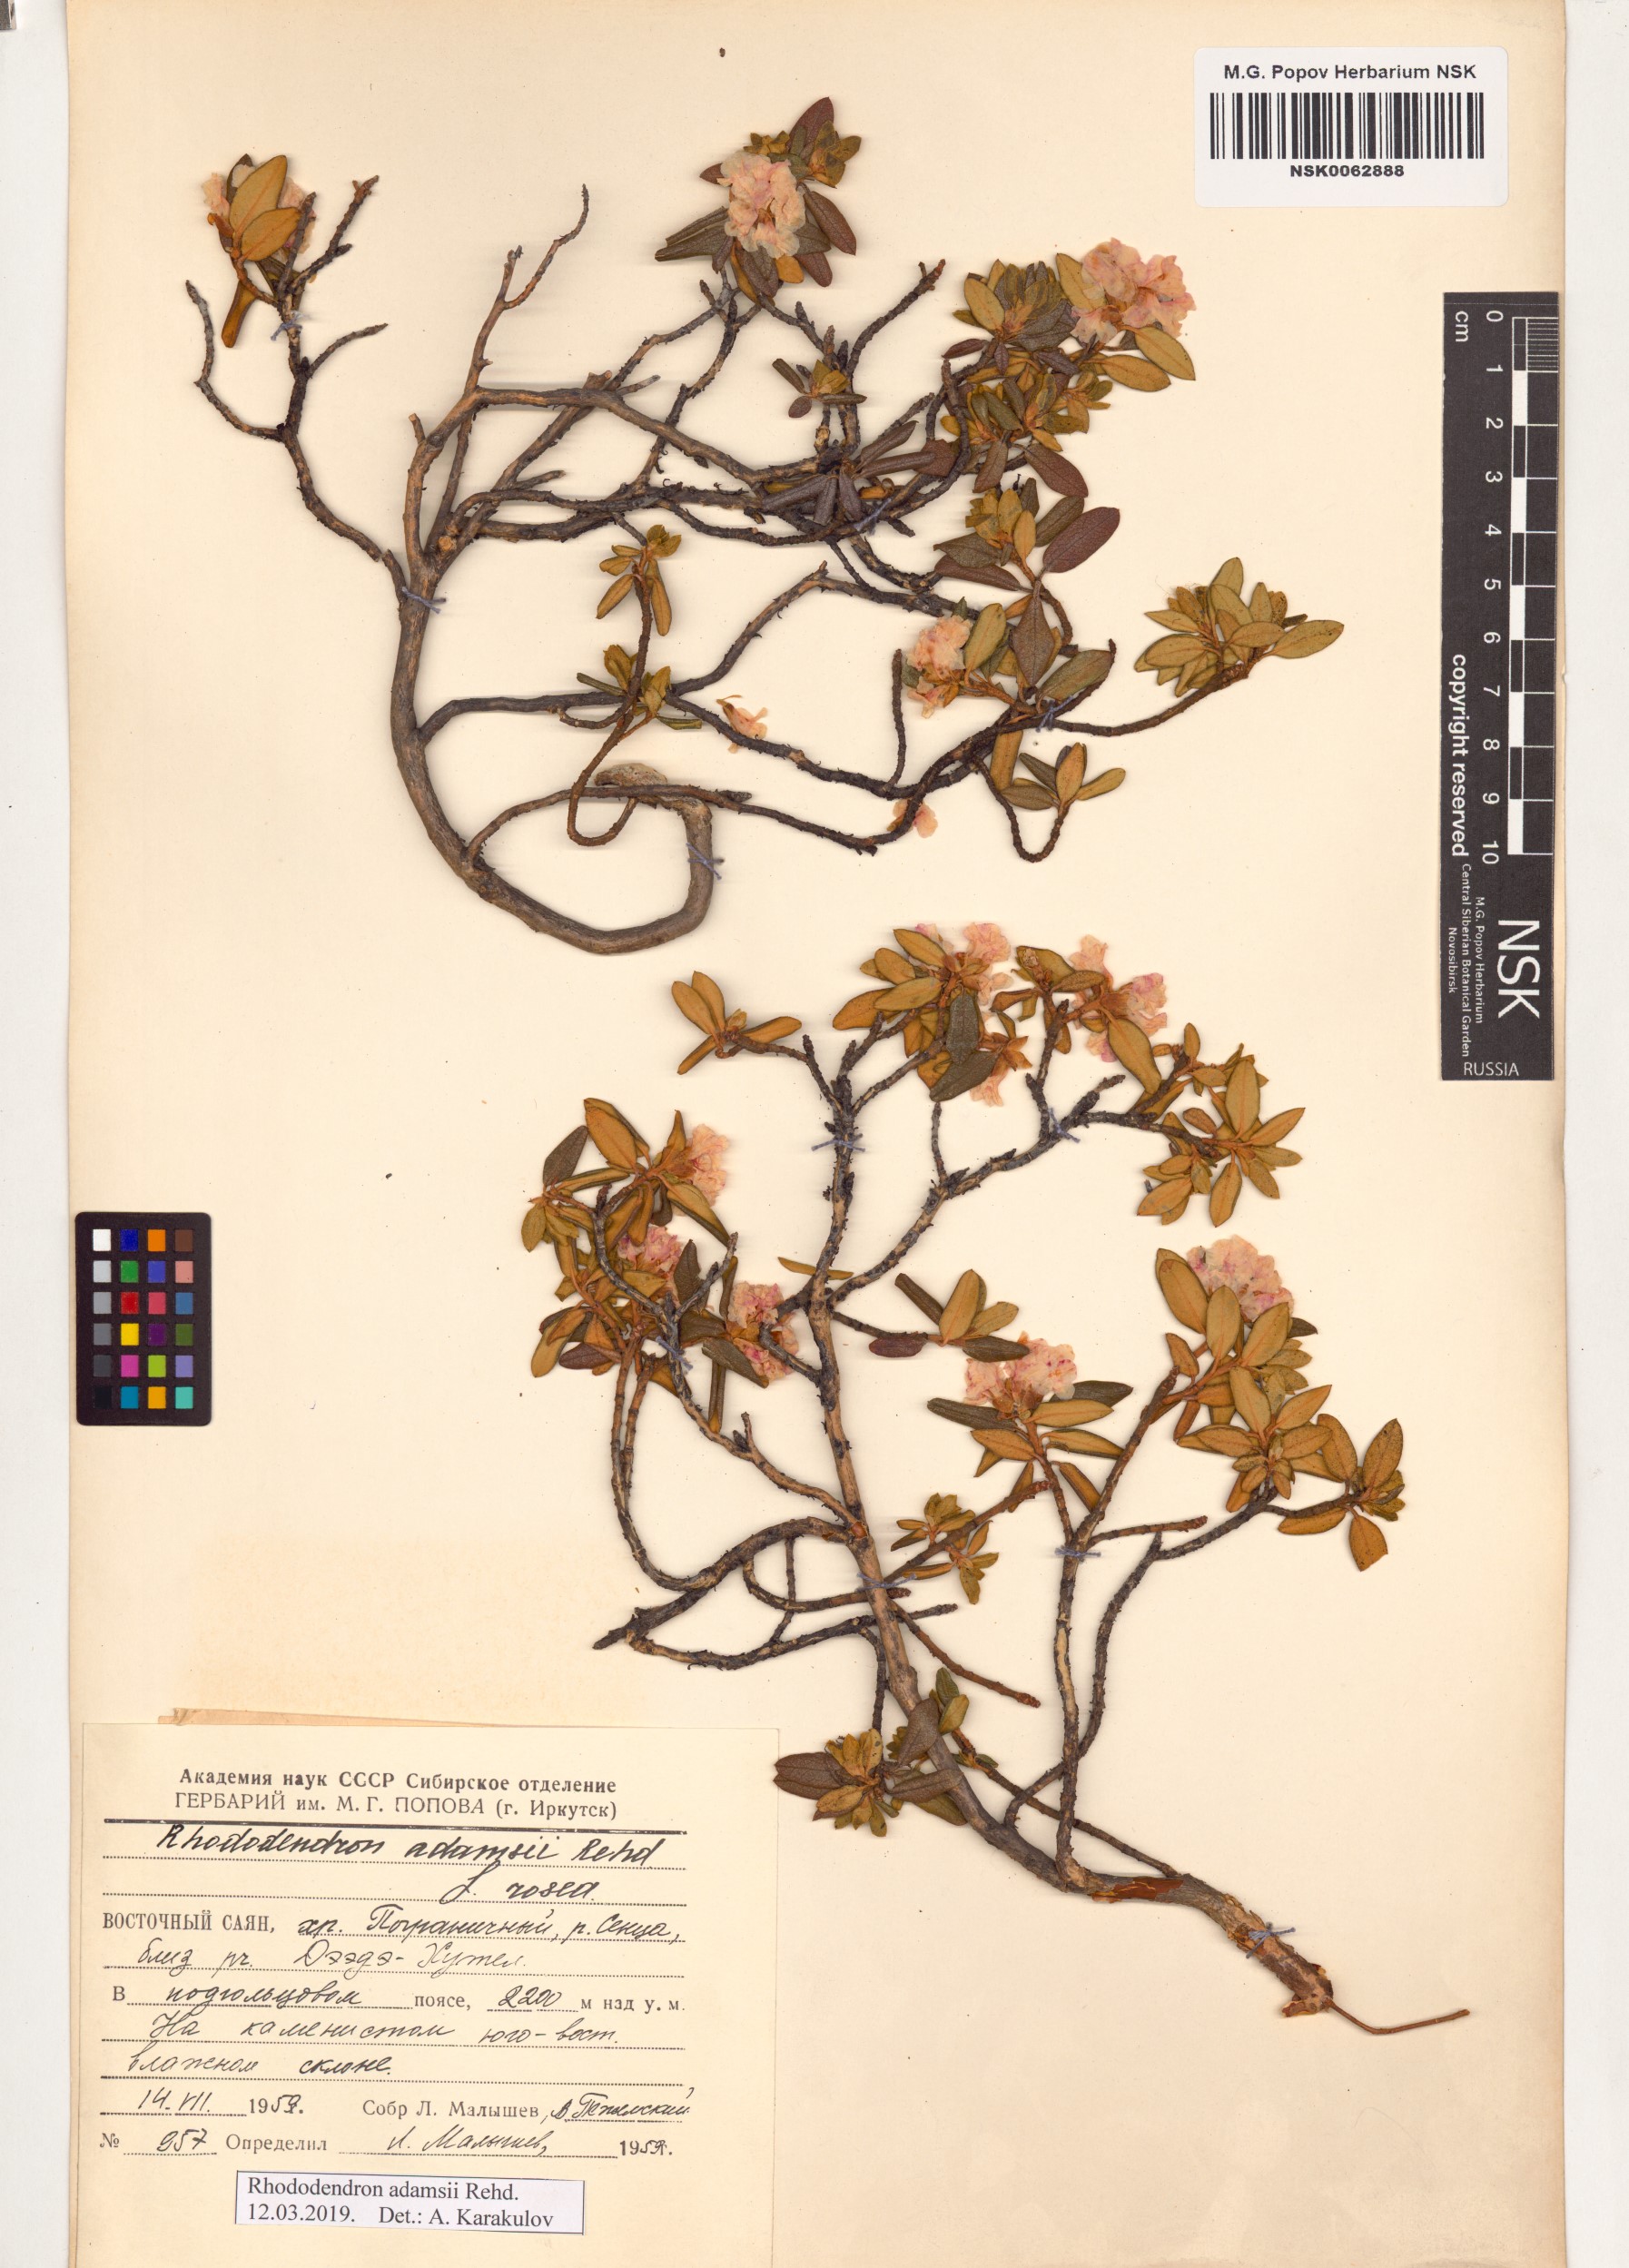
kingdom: Plantae
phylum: Tracheophyta
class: Magnoliopsida
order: Ericales
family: Ericaceae
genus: Rhododendron
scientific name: Rhododendron adamsii
